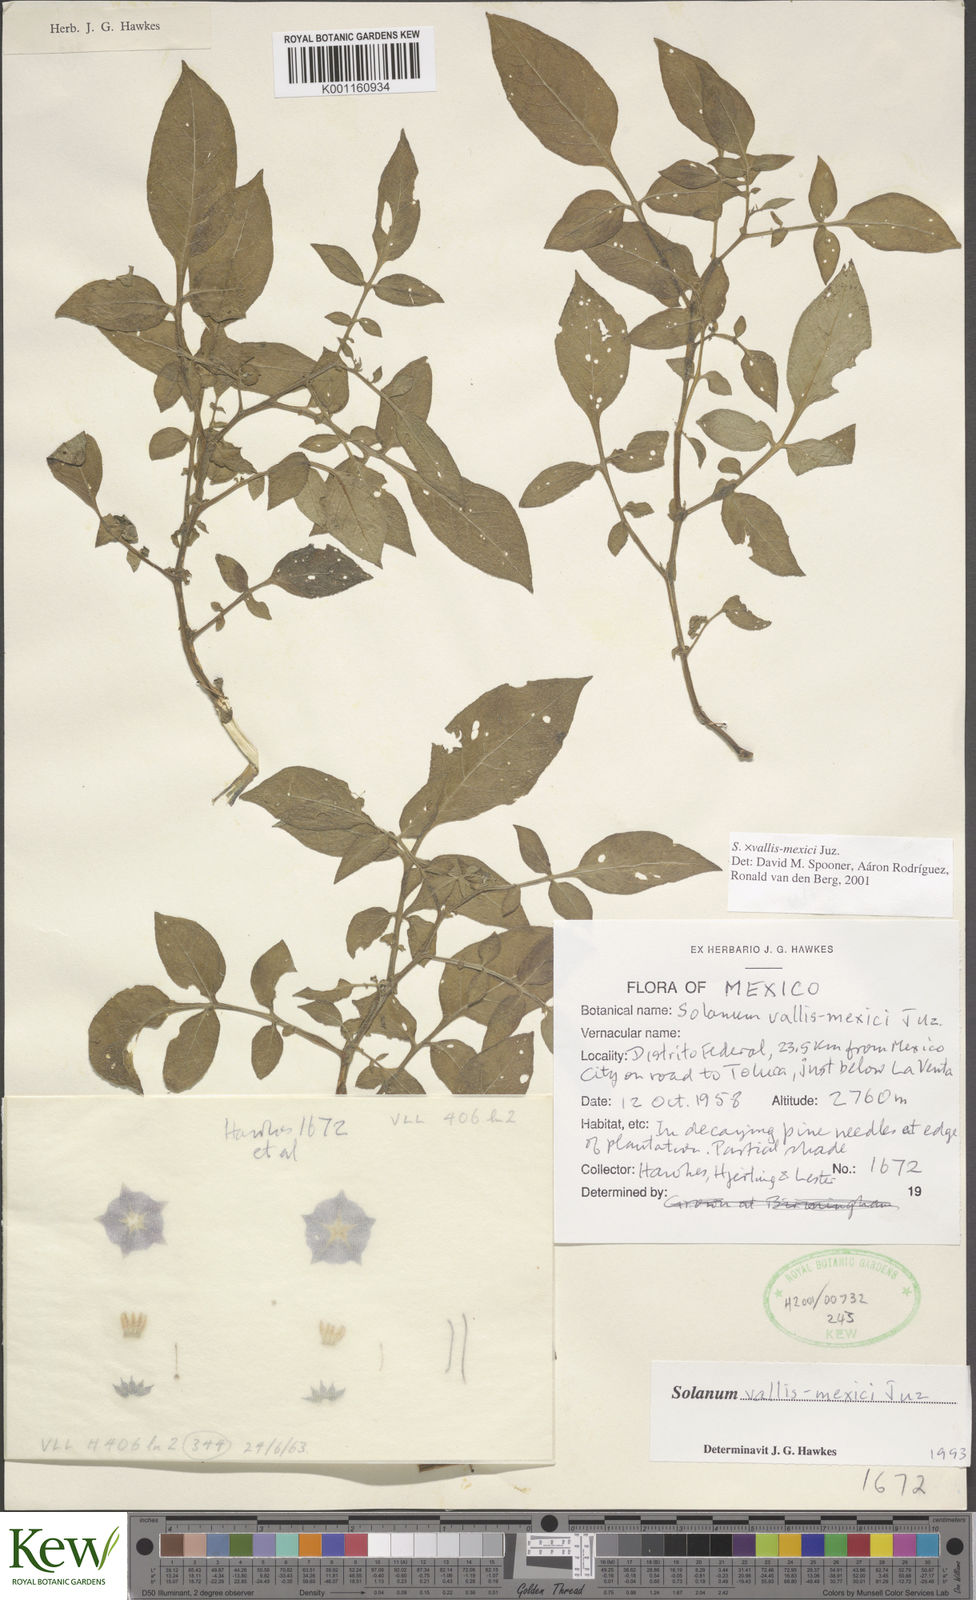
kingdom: Plantae
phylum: Tracheophyta
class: Magnoliopsida
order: Solanales
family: Solanaceae
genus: Solanum
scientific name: Solanum vallis-mexici
